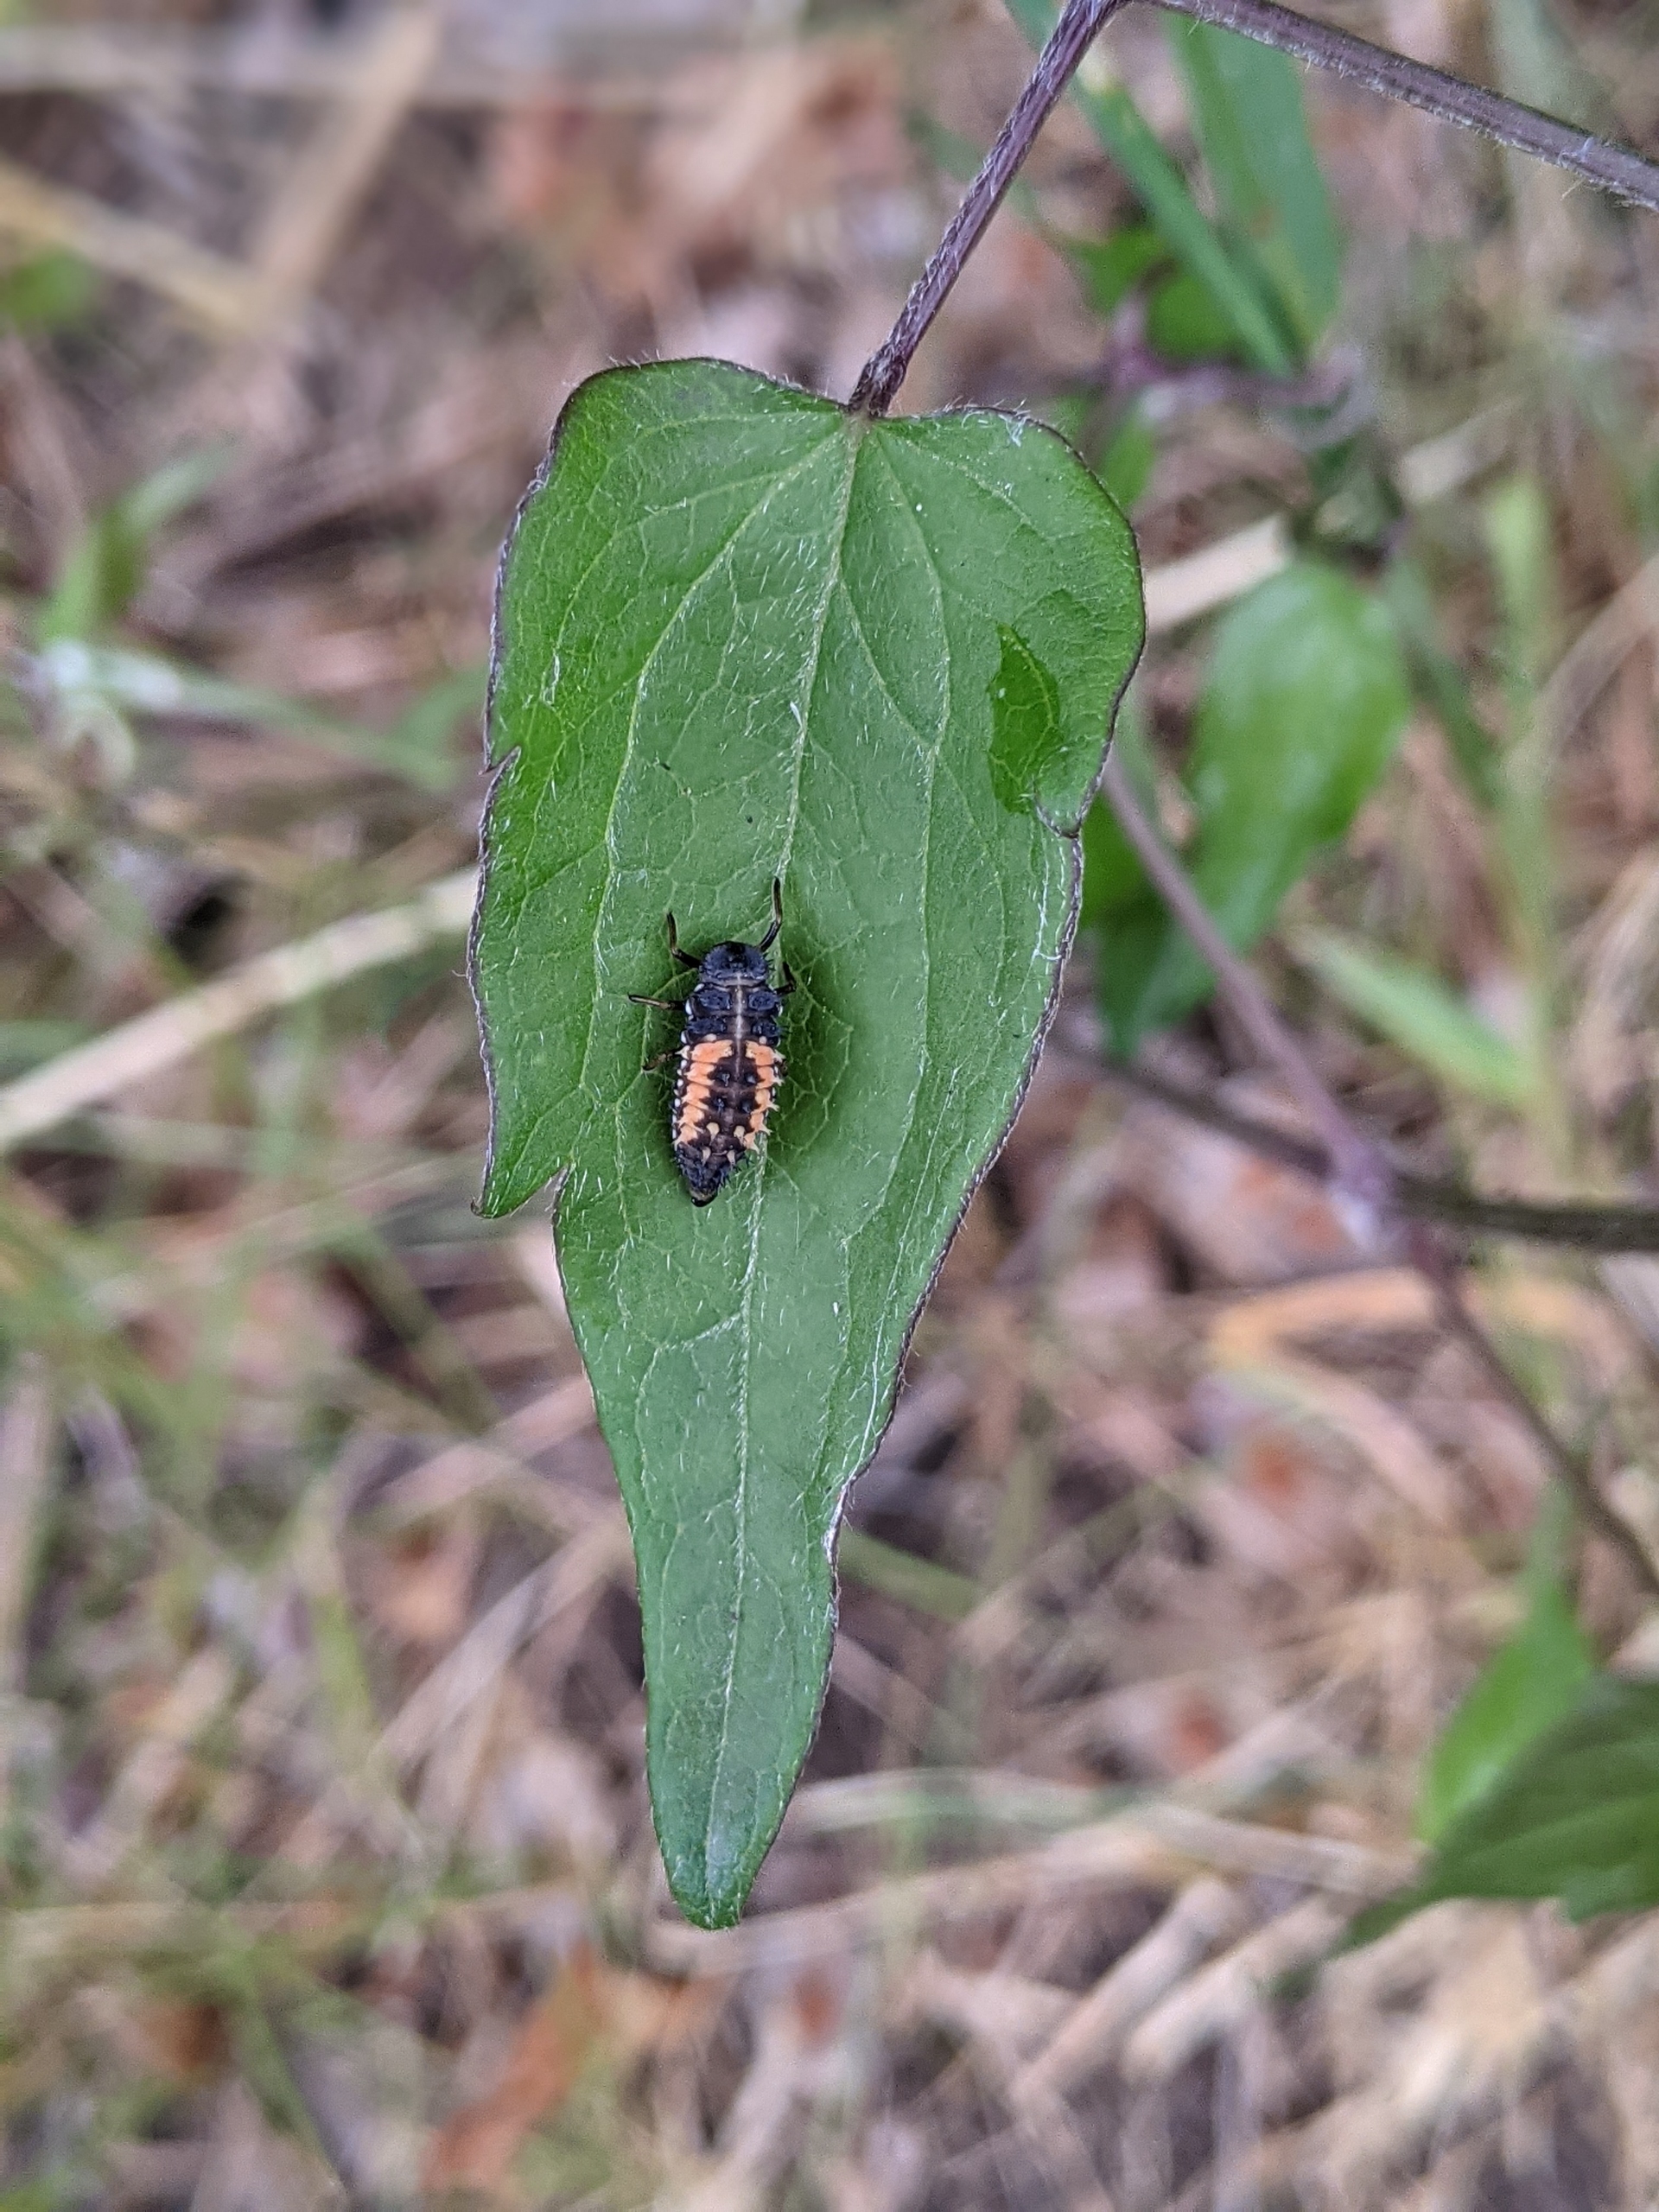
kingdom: Animalia
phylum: Arthropoda
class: Insecta
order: Coleoptera
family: Coccinellidae
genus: Harmonia
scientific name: Harmonia axyridis
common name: Harlekinmariehøne
